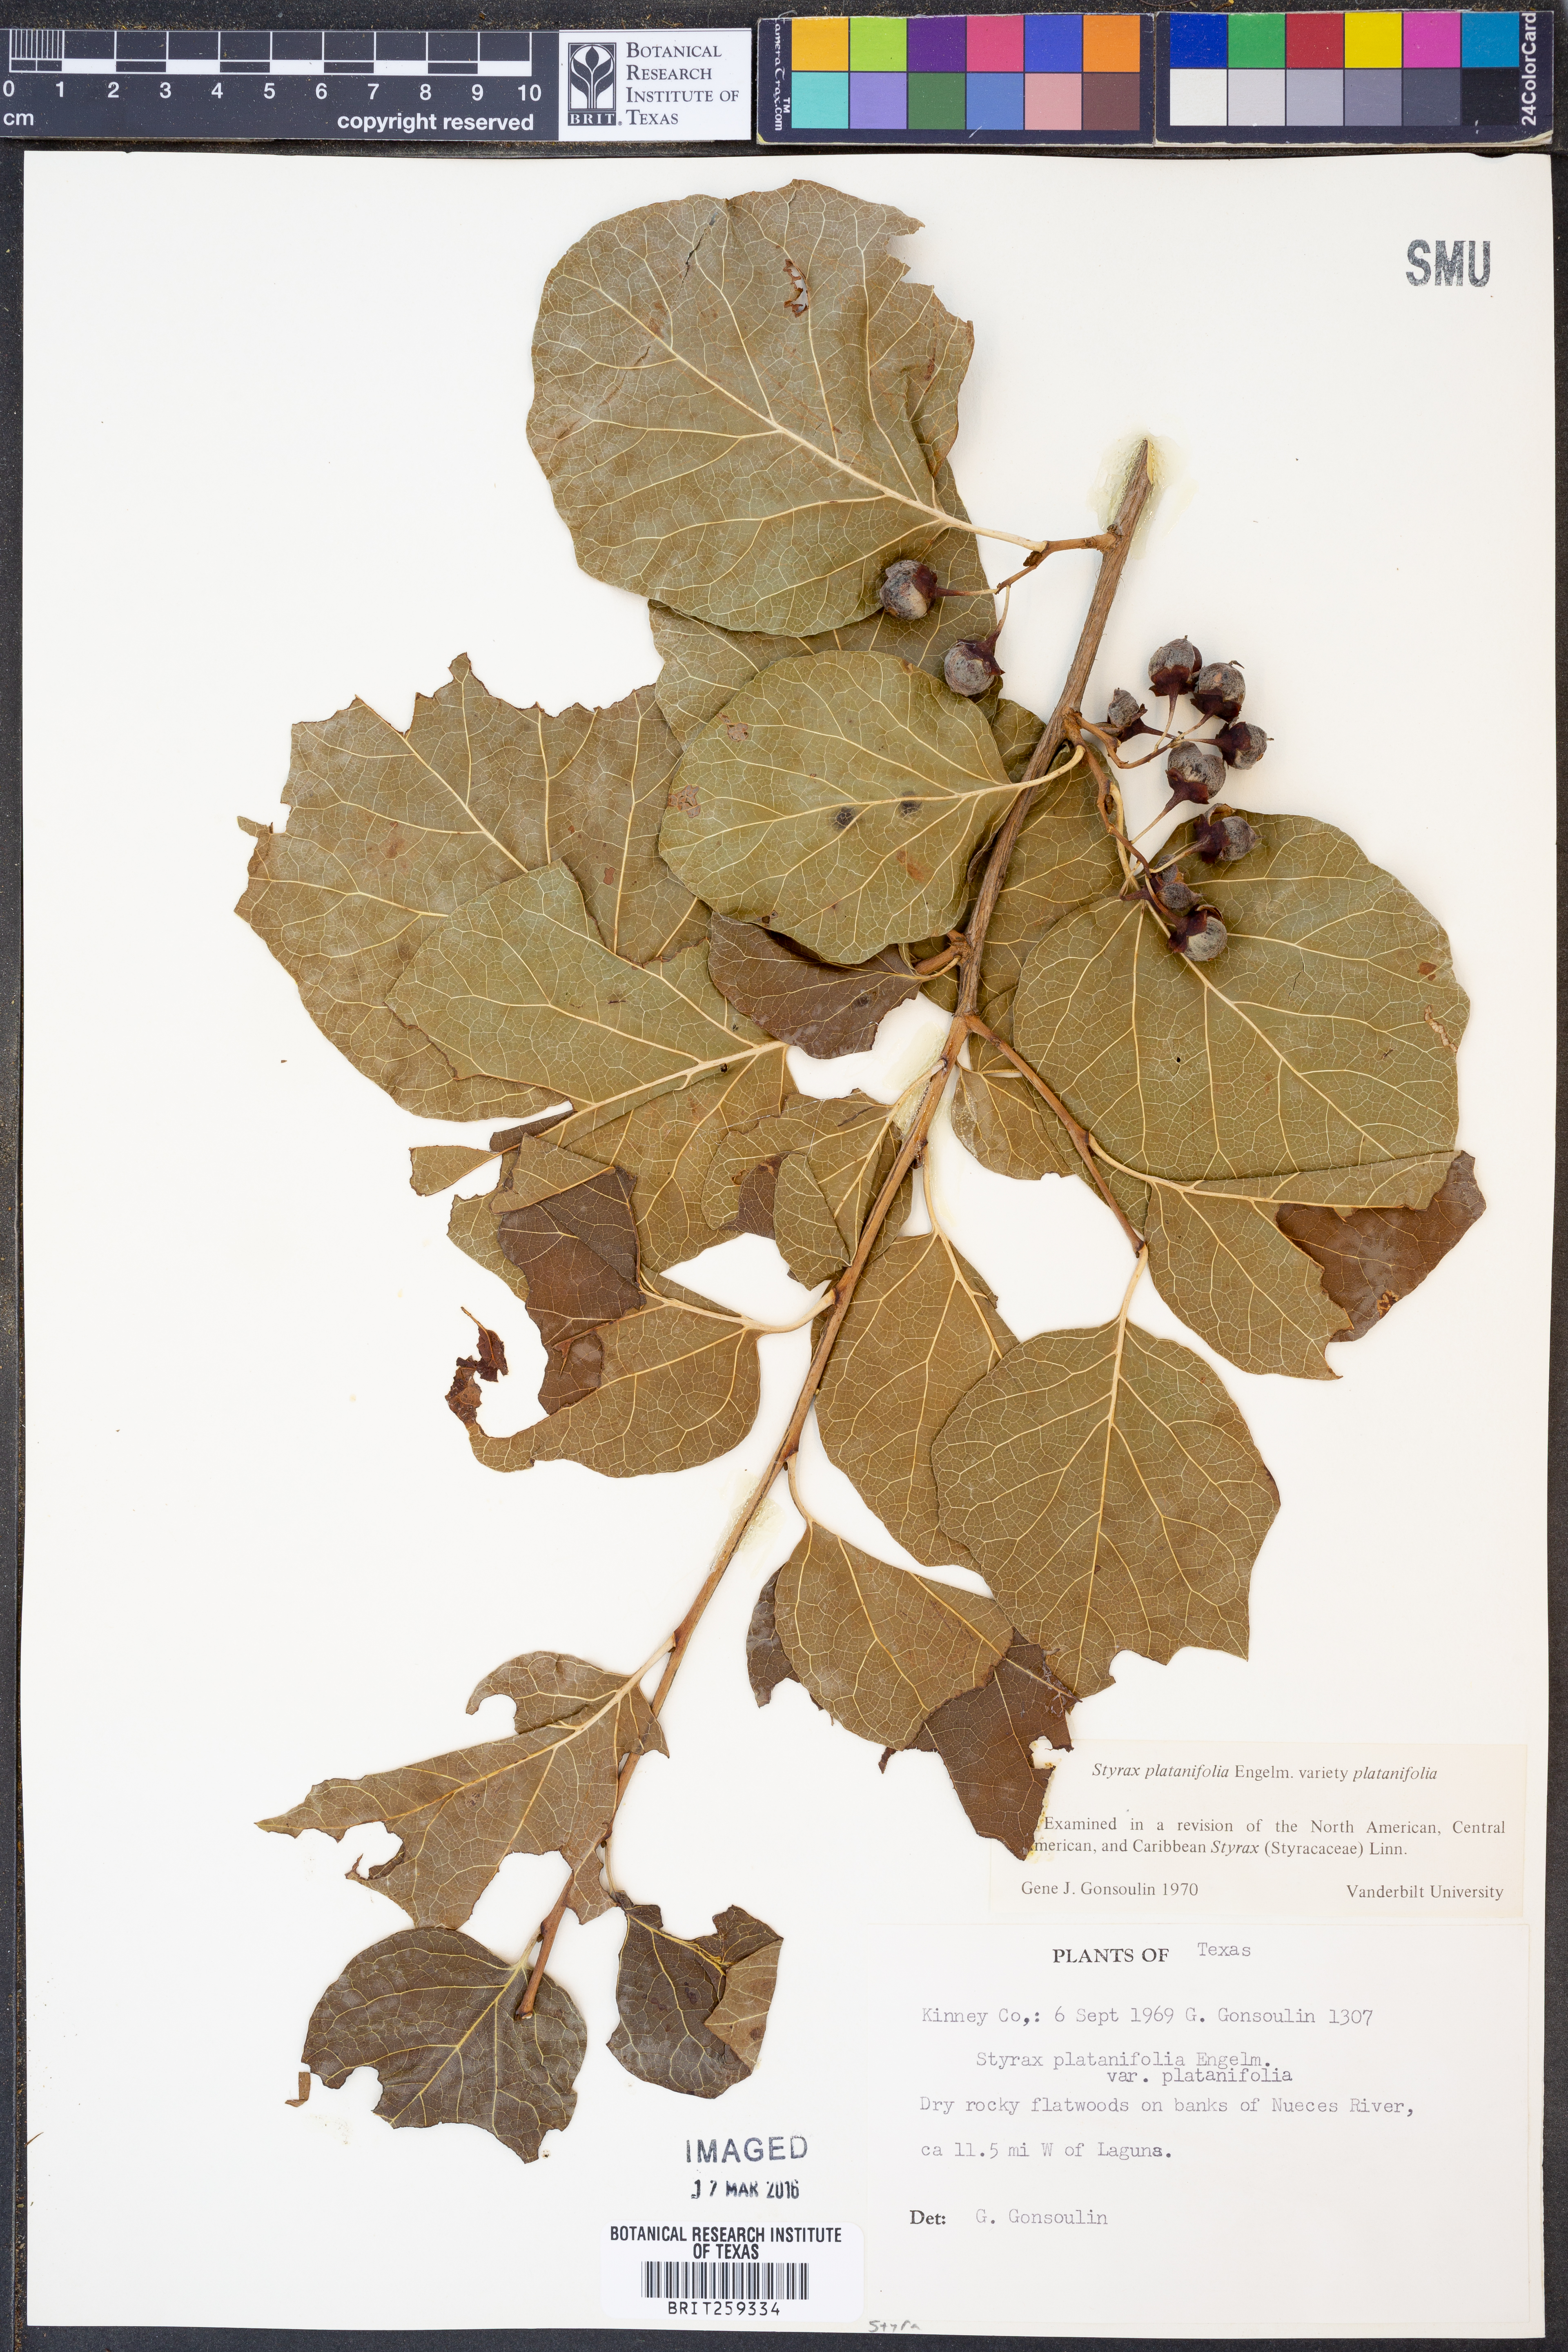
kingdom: Plantae
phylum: Tracheophyta
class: Magnoliopsida
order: Ericales
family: Styracaceae
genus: Styrax
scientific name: Styrax platanifolius
